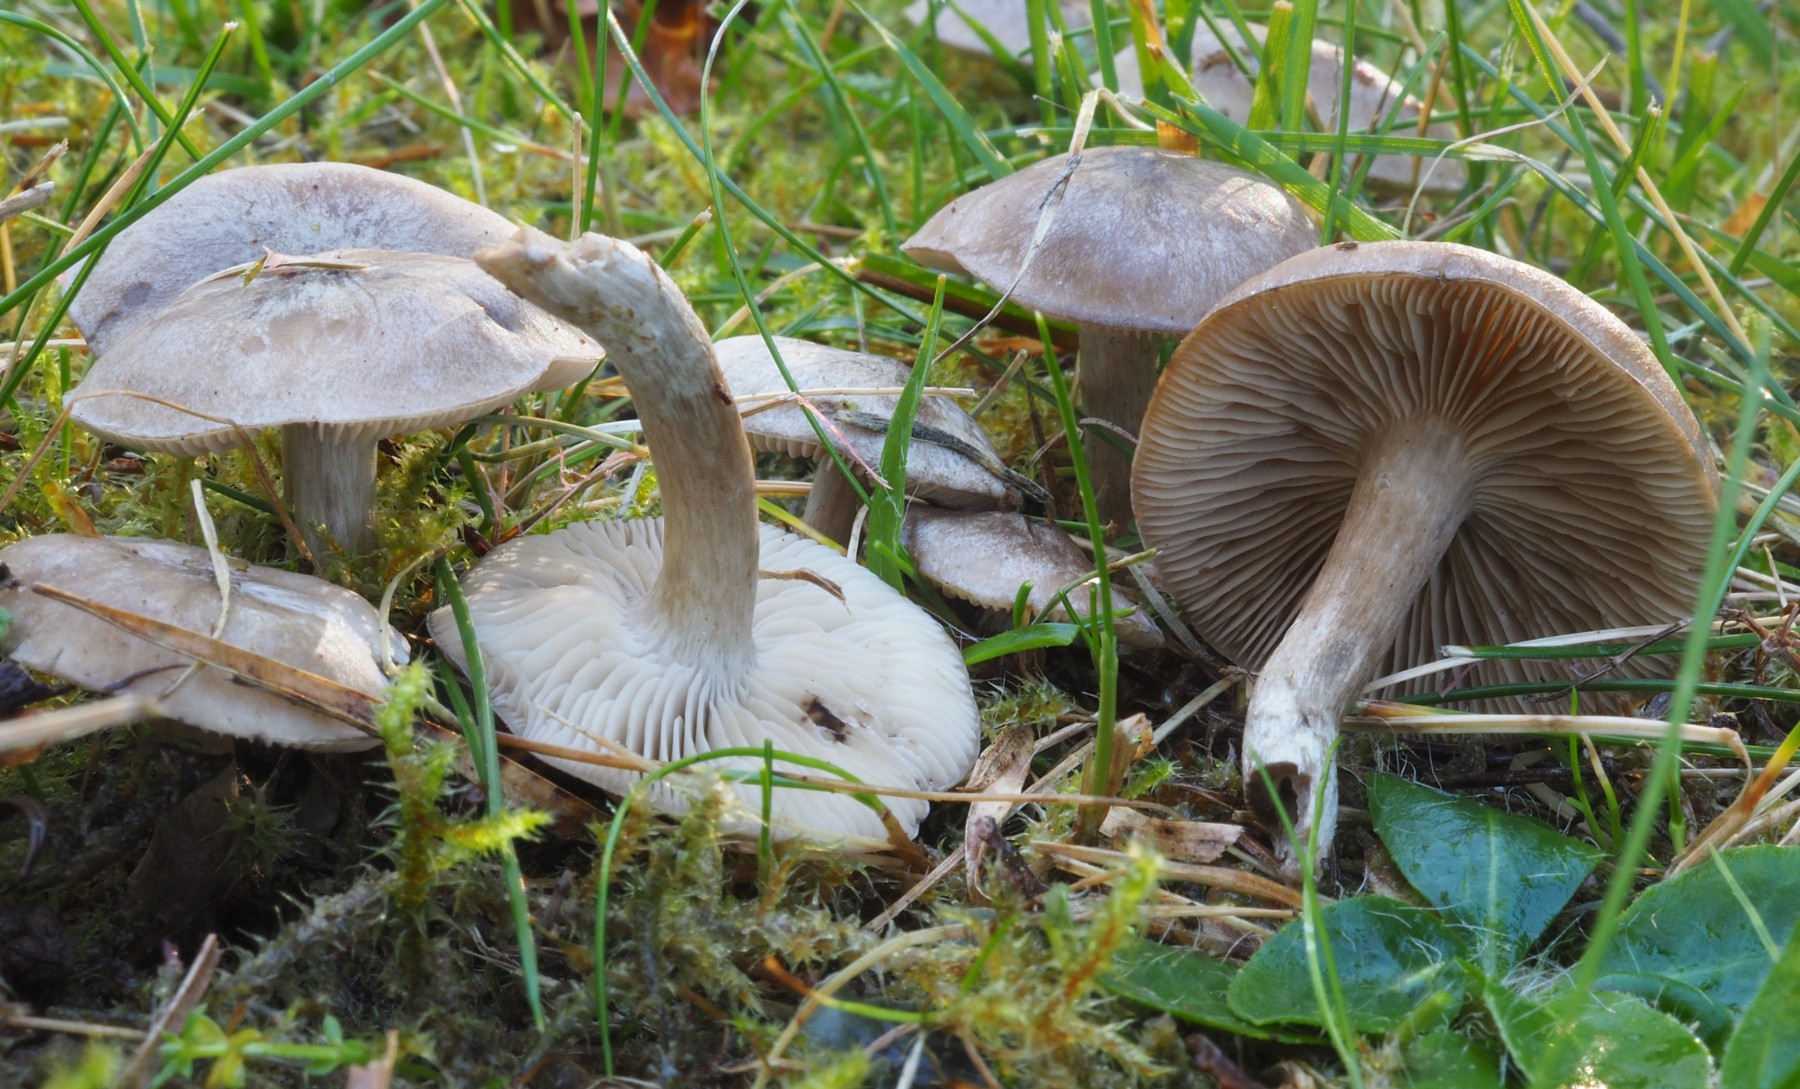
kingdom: Fungi
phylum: Basidiomycota
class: Agaricomycetes
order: Agaricales
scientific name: Agaricales
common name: champignonordenen
